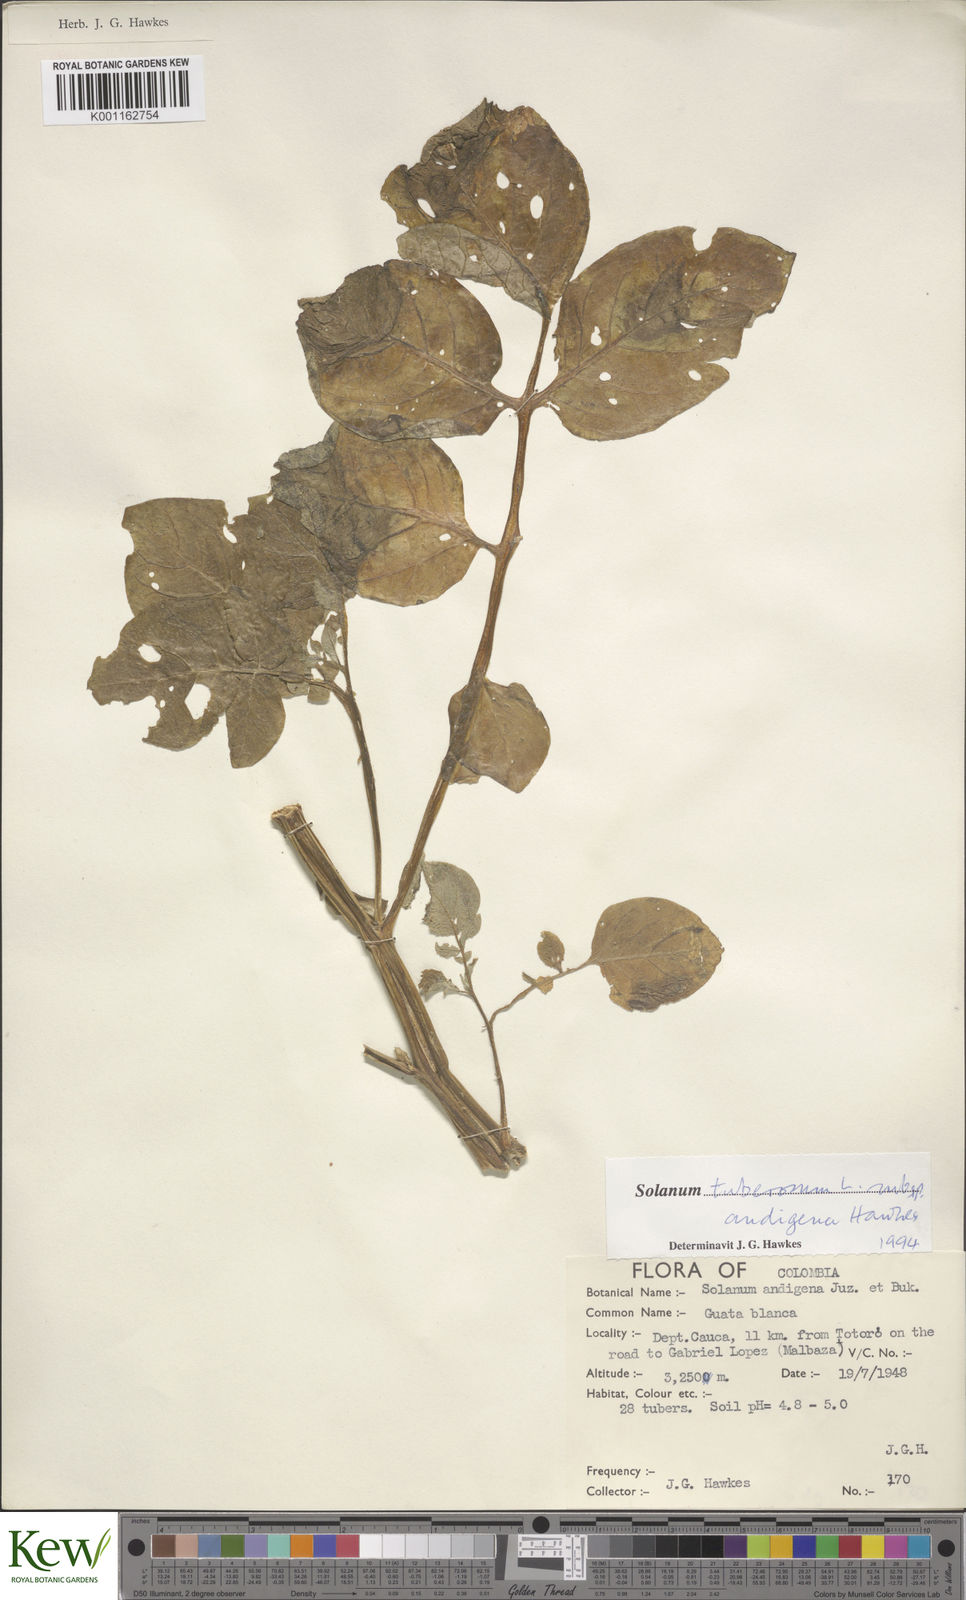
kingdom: Plantae
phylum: Tracheophyta
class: Magnoliopsida
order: Solanales
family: Solanaceae
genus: Solanum
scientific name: Solanum tuberosum
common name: Potato
